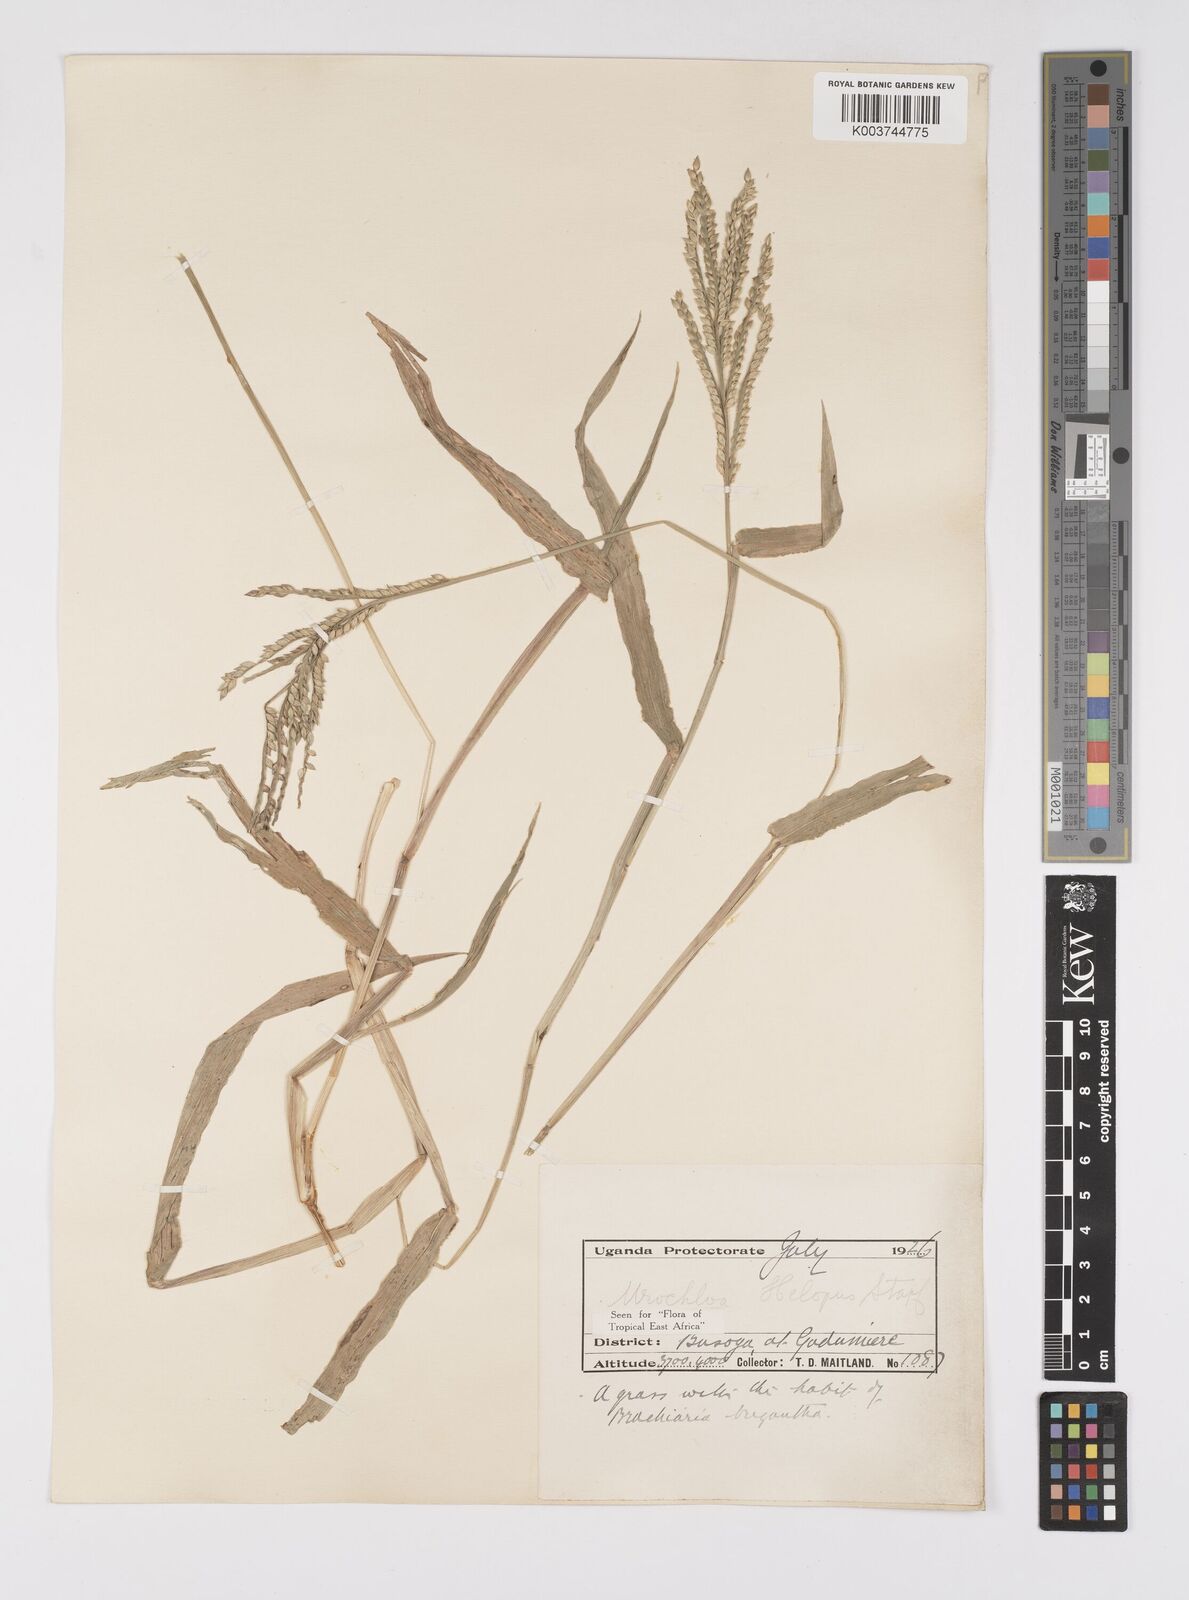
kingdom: Plantae
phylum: Tracheophyta
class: Liliopsida
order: Poales
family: Poaceae
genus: Urochloa
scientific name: Urochloa panicoides
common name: Sharp-flowered signal-grass
